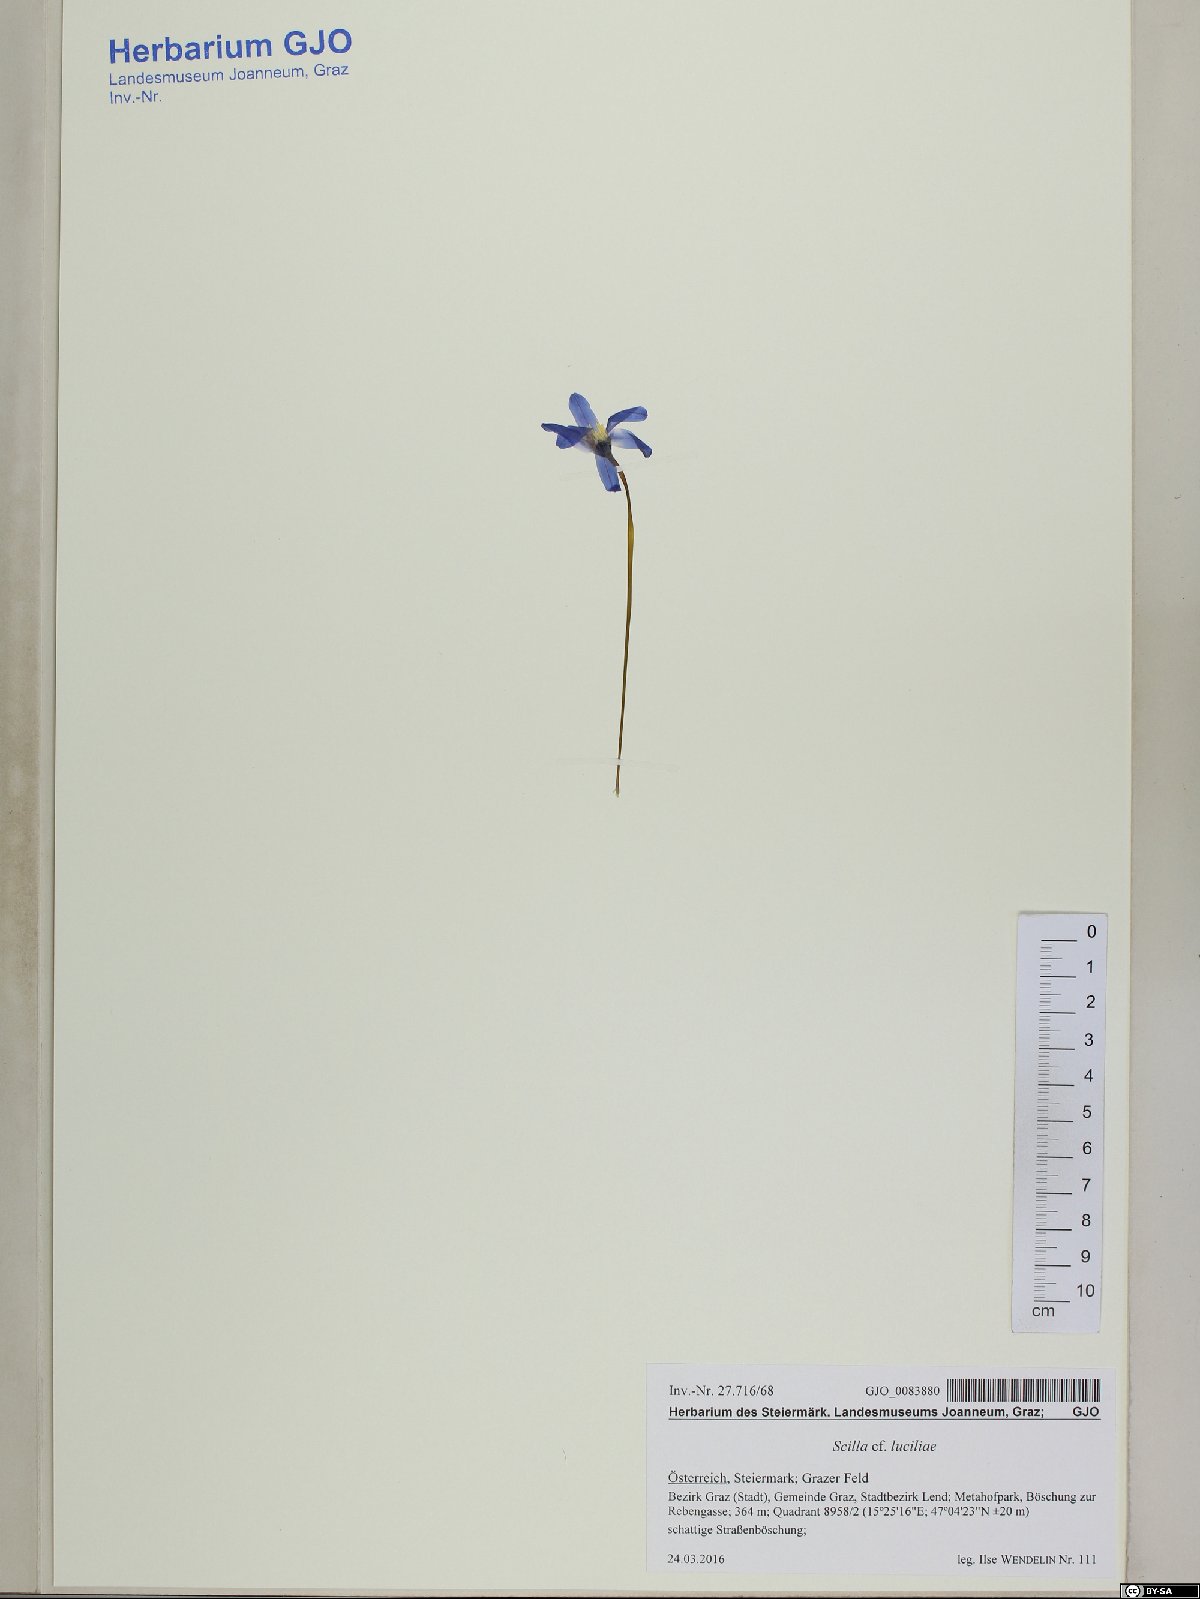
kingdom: Plantae
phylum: Tracheophyta
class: Liliopsida
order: Asparagales
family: Asparagaceae
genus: Scilla
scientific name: Scilla forbesii
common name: Glory-of-the-snow
